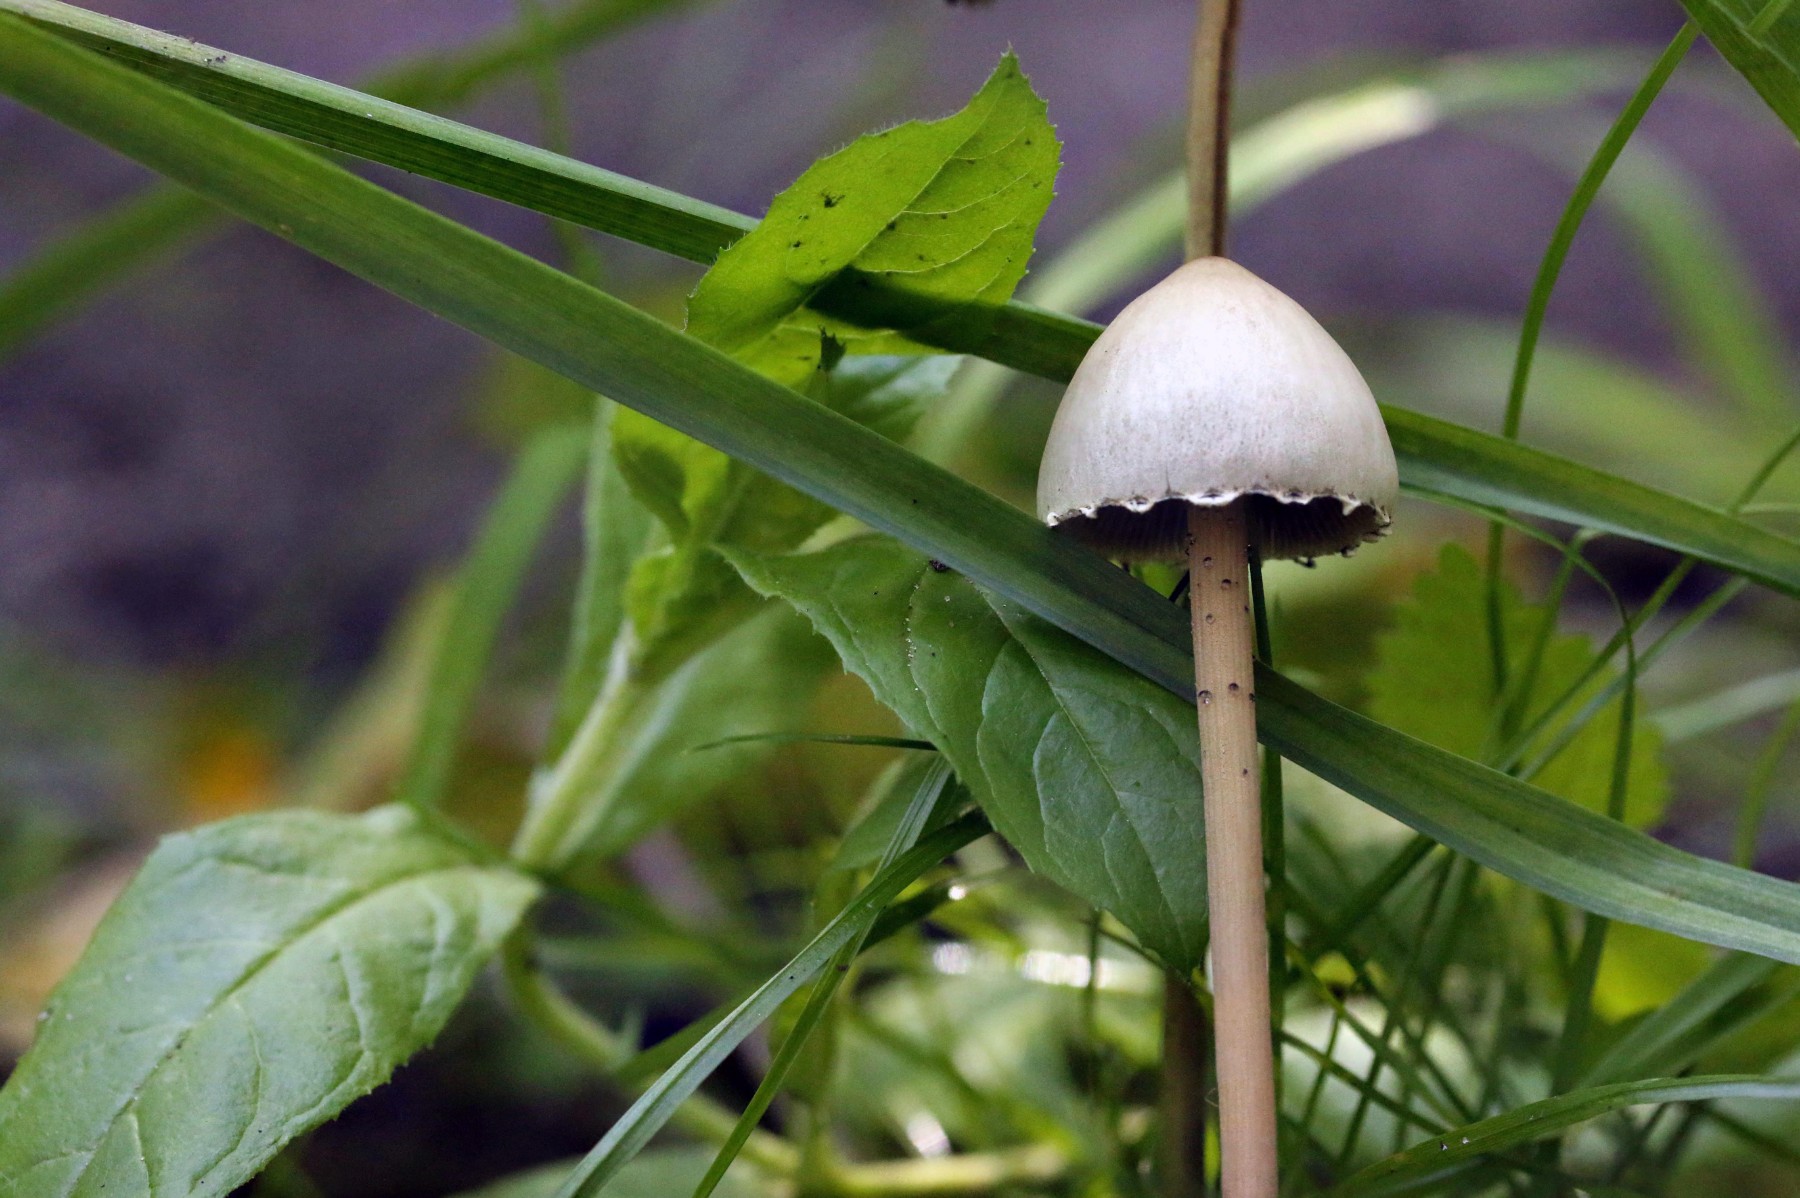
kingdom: Fungi
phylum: Basidiomycota
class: Agaricomycetes
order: Agaricales
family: Hydnangiaceae
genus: Laccaria
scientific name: Laccaria amethystina
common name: violet ametysthat
